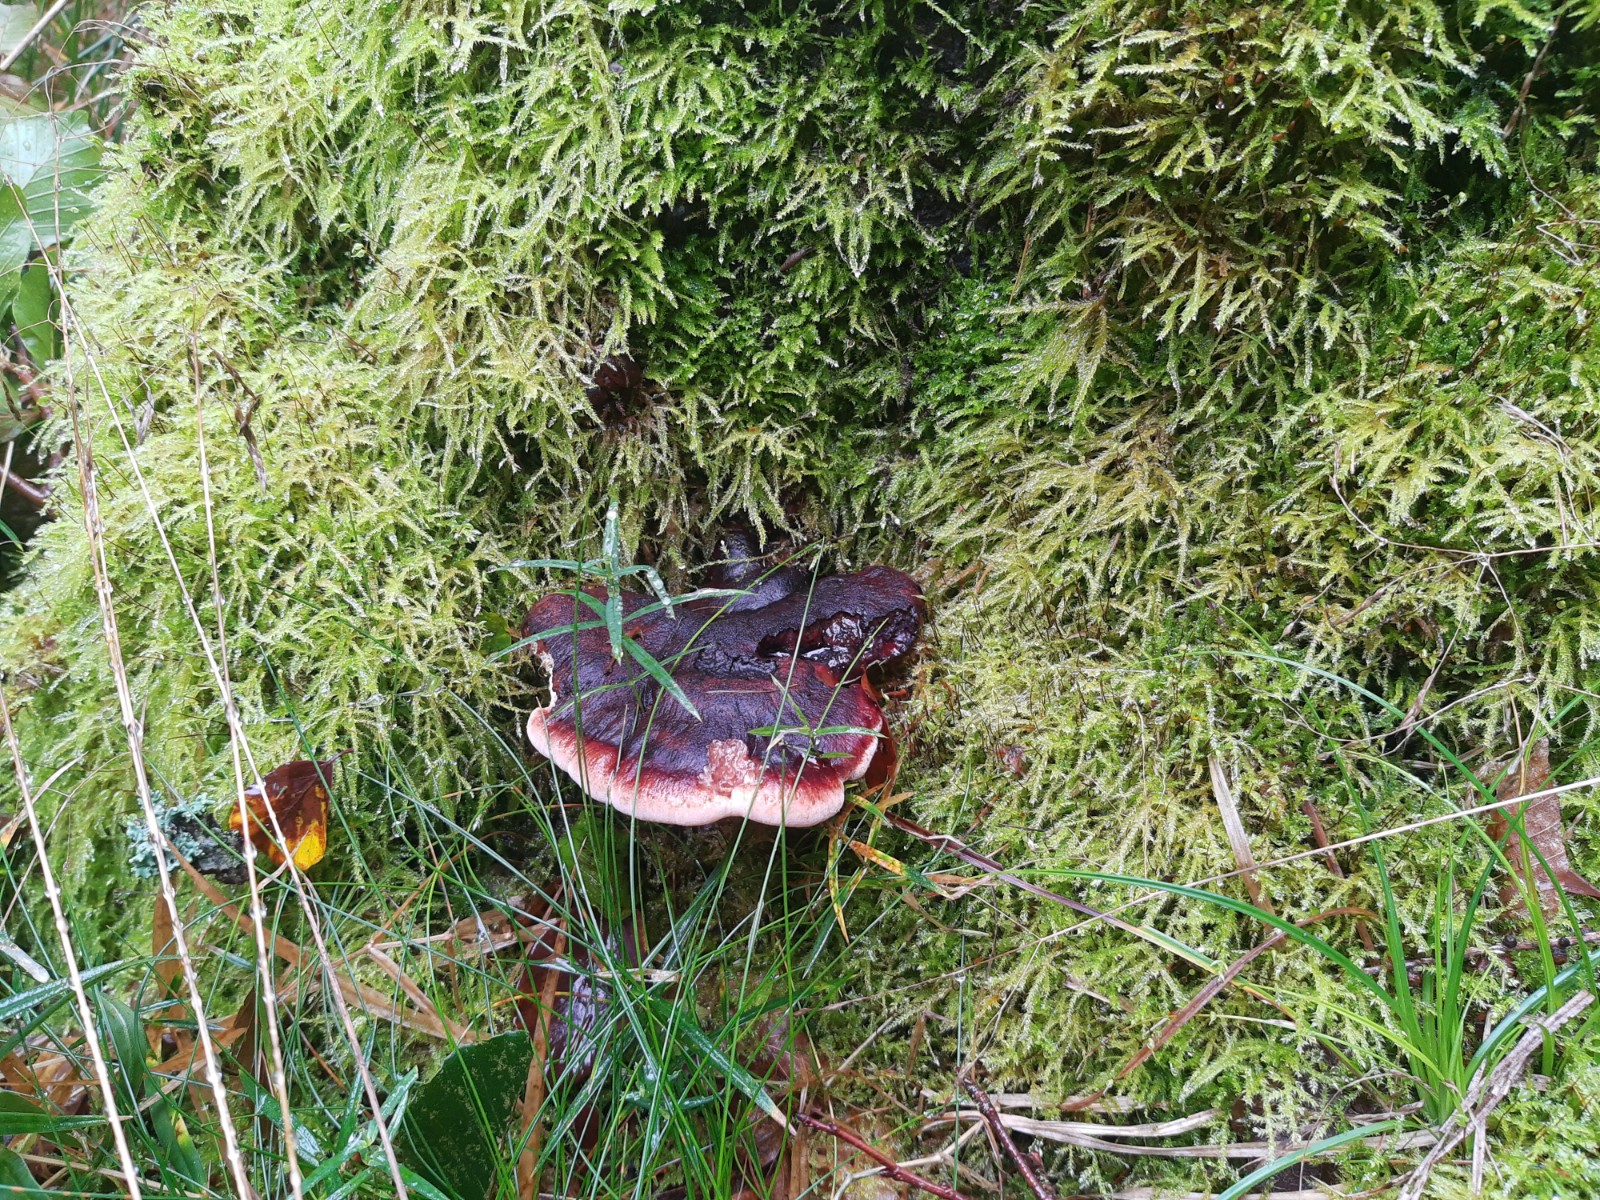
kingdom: Fungi
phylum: Basidiomycota
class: Agaricomycetes
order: Polyporales
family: Ischnodermataceae
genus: Ischnoderma
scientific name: Ischnoderma resinosum
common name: løv-tjæreporesvamp
